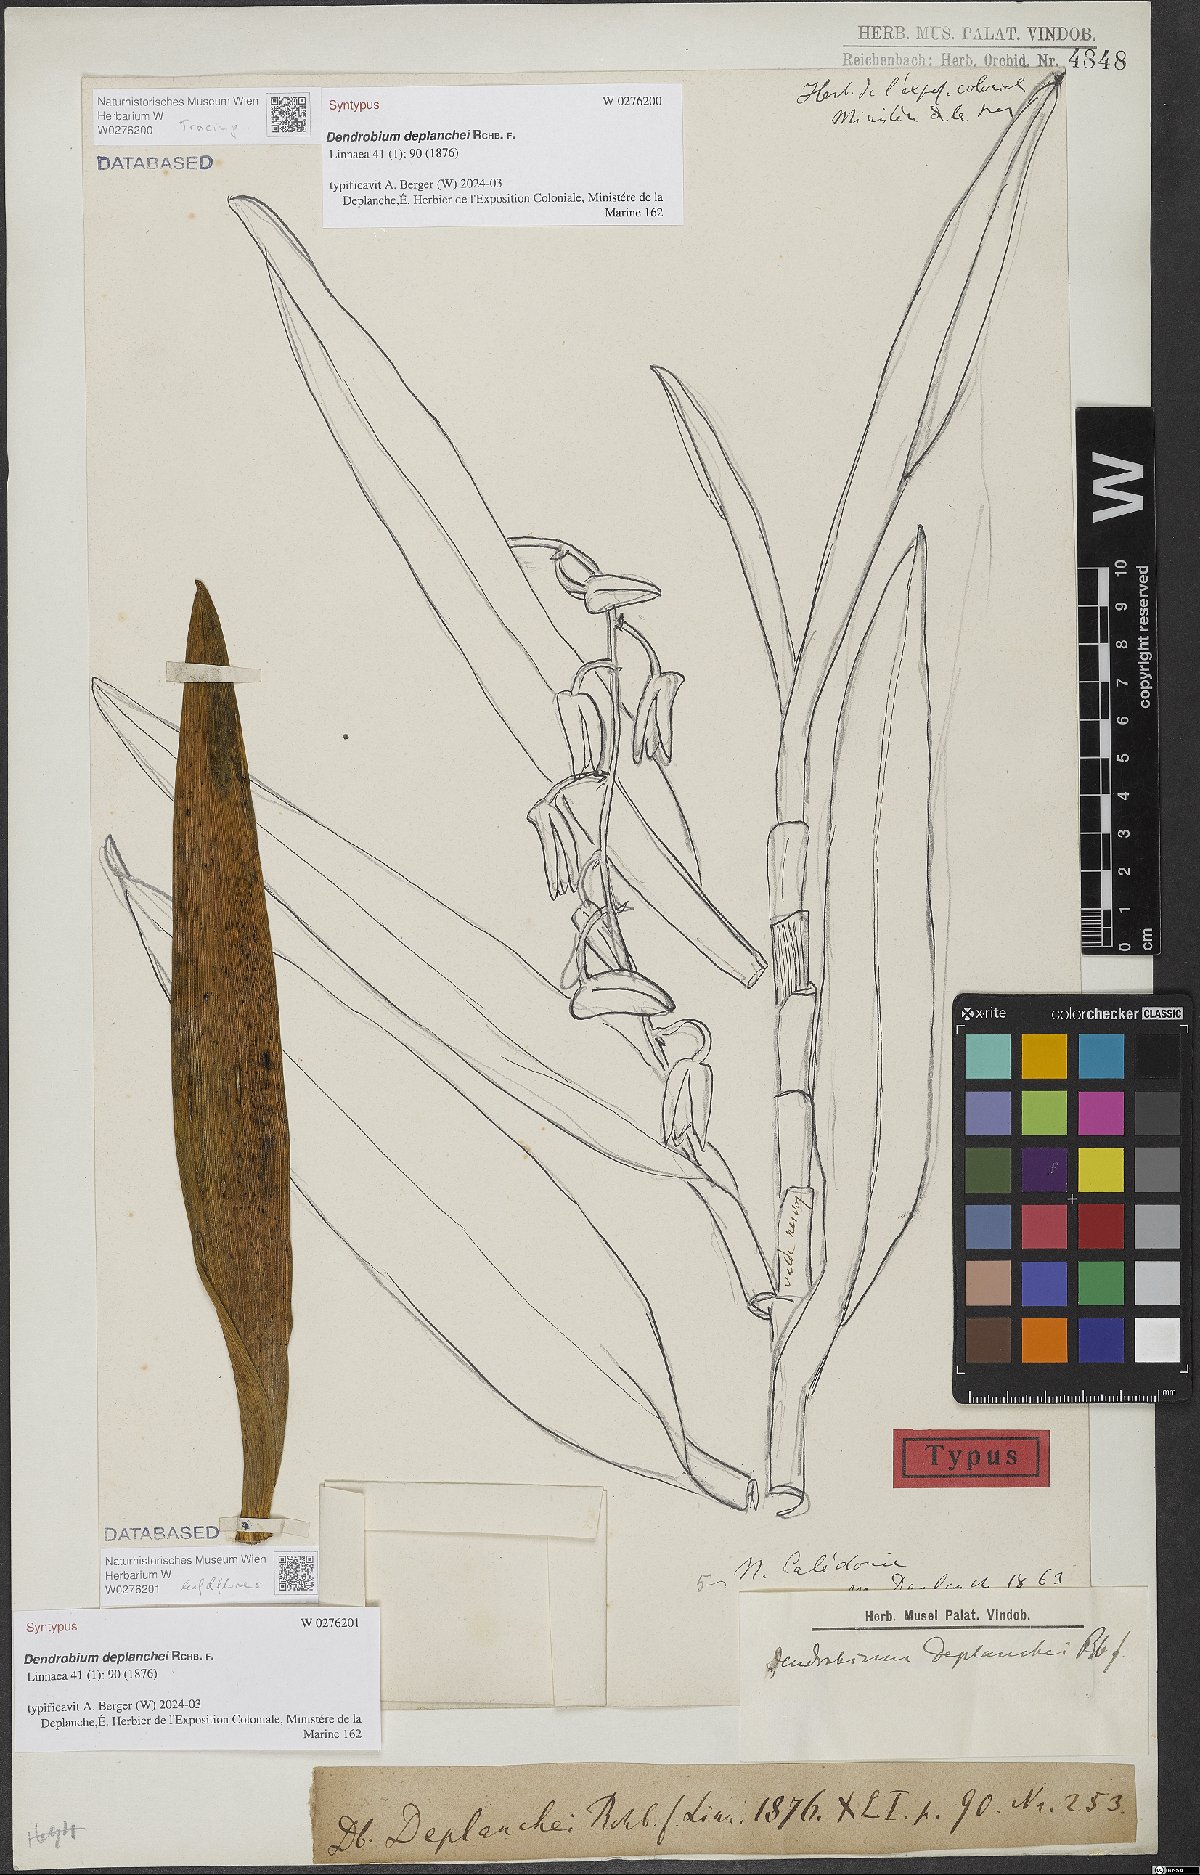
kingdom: Plantae
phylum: Tracheophyta
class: Liliopsida
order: Asparagales
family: Orchidaceae
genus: Dendrobium
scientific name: Dendrobium deplanchei
